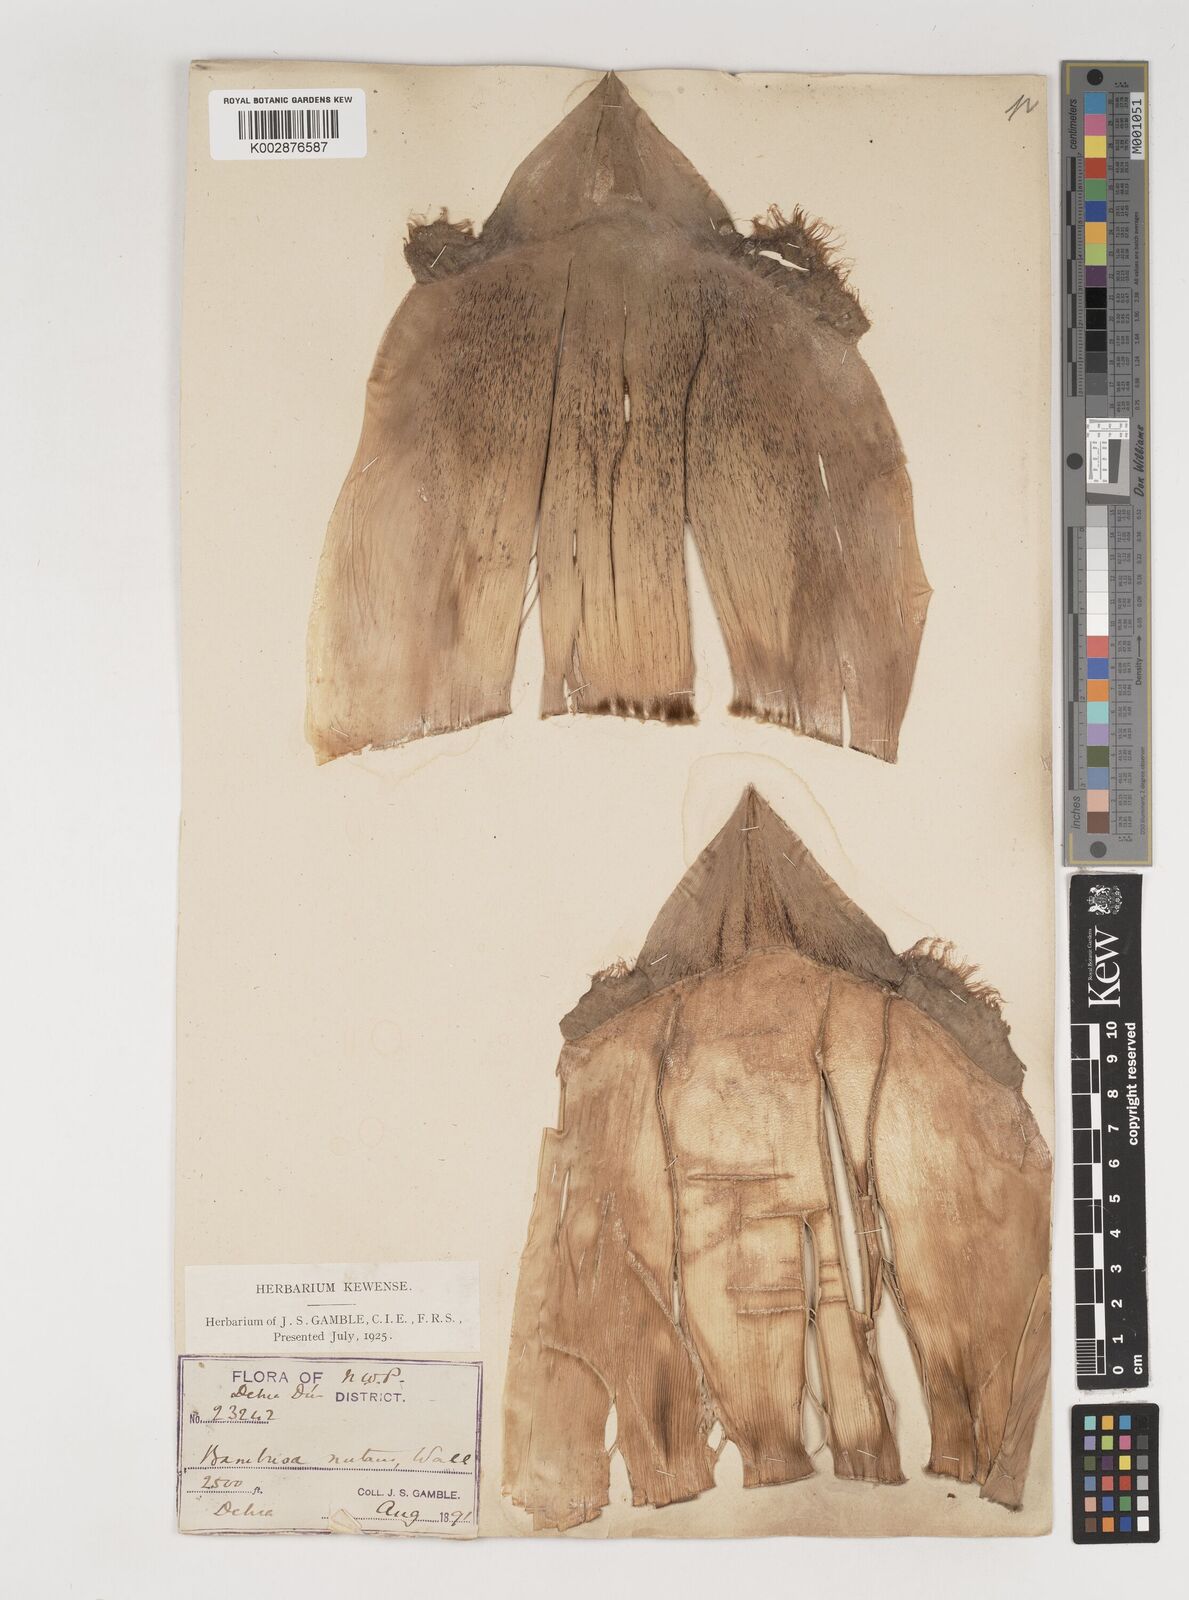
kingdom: Plantae
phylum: Tracheophyta
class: Liliopsida
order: Poales
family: Poaceae
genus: Bambusa
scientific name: Bambusa nutans
